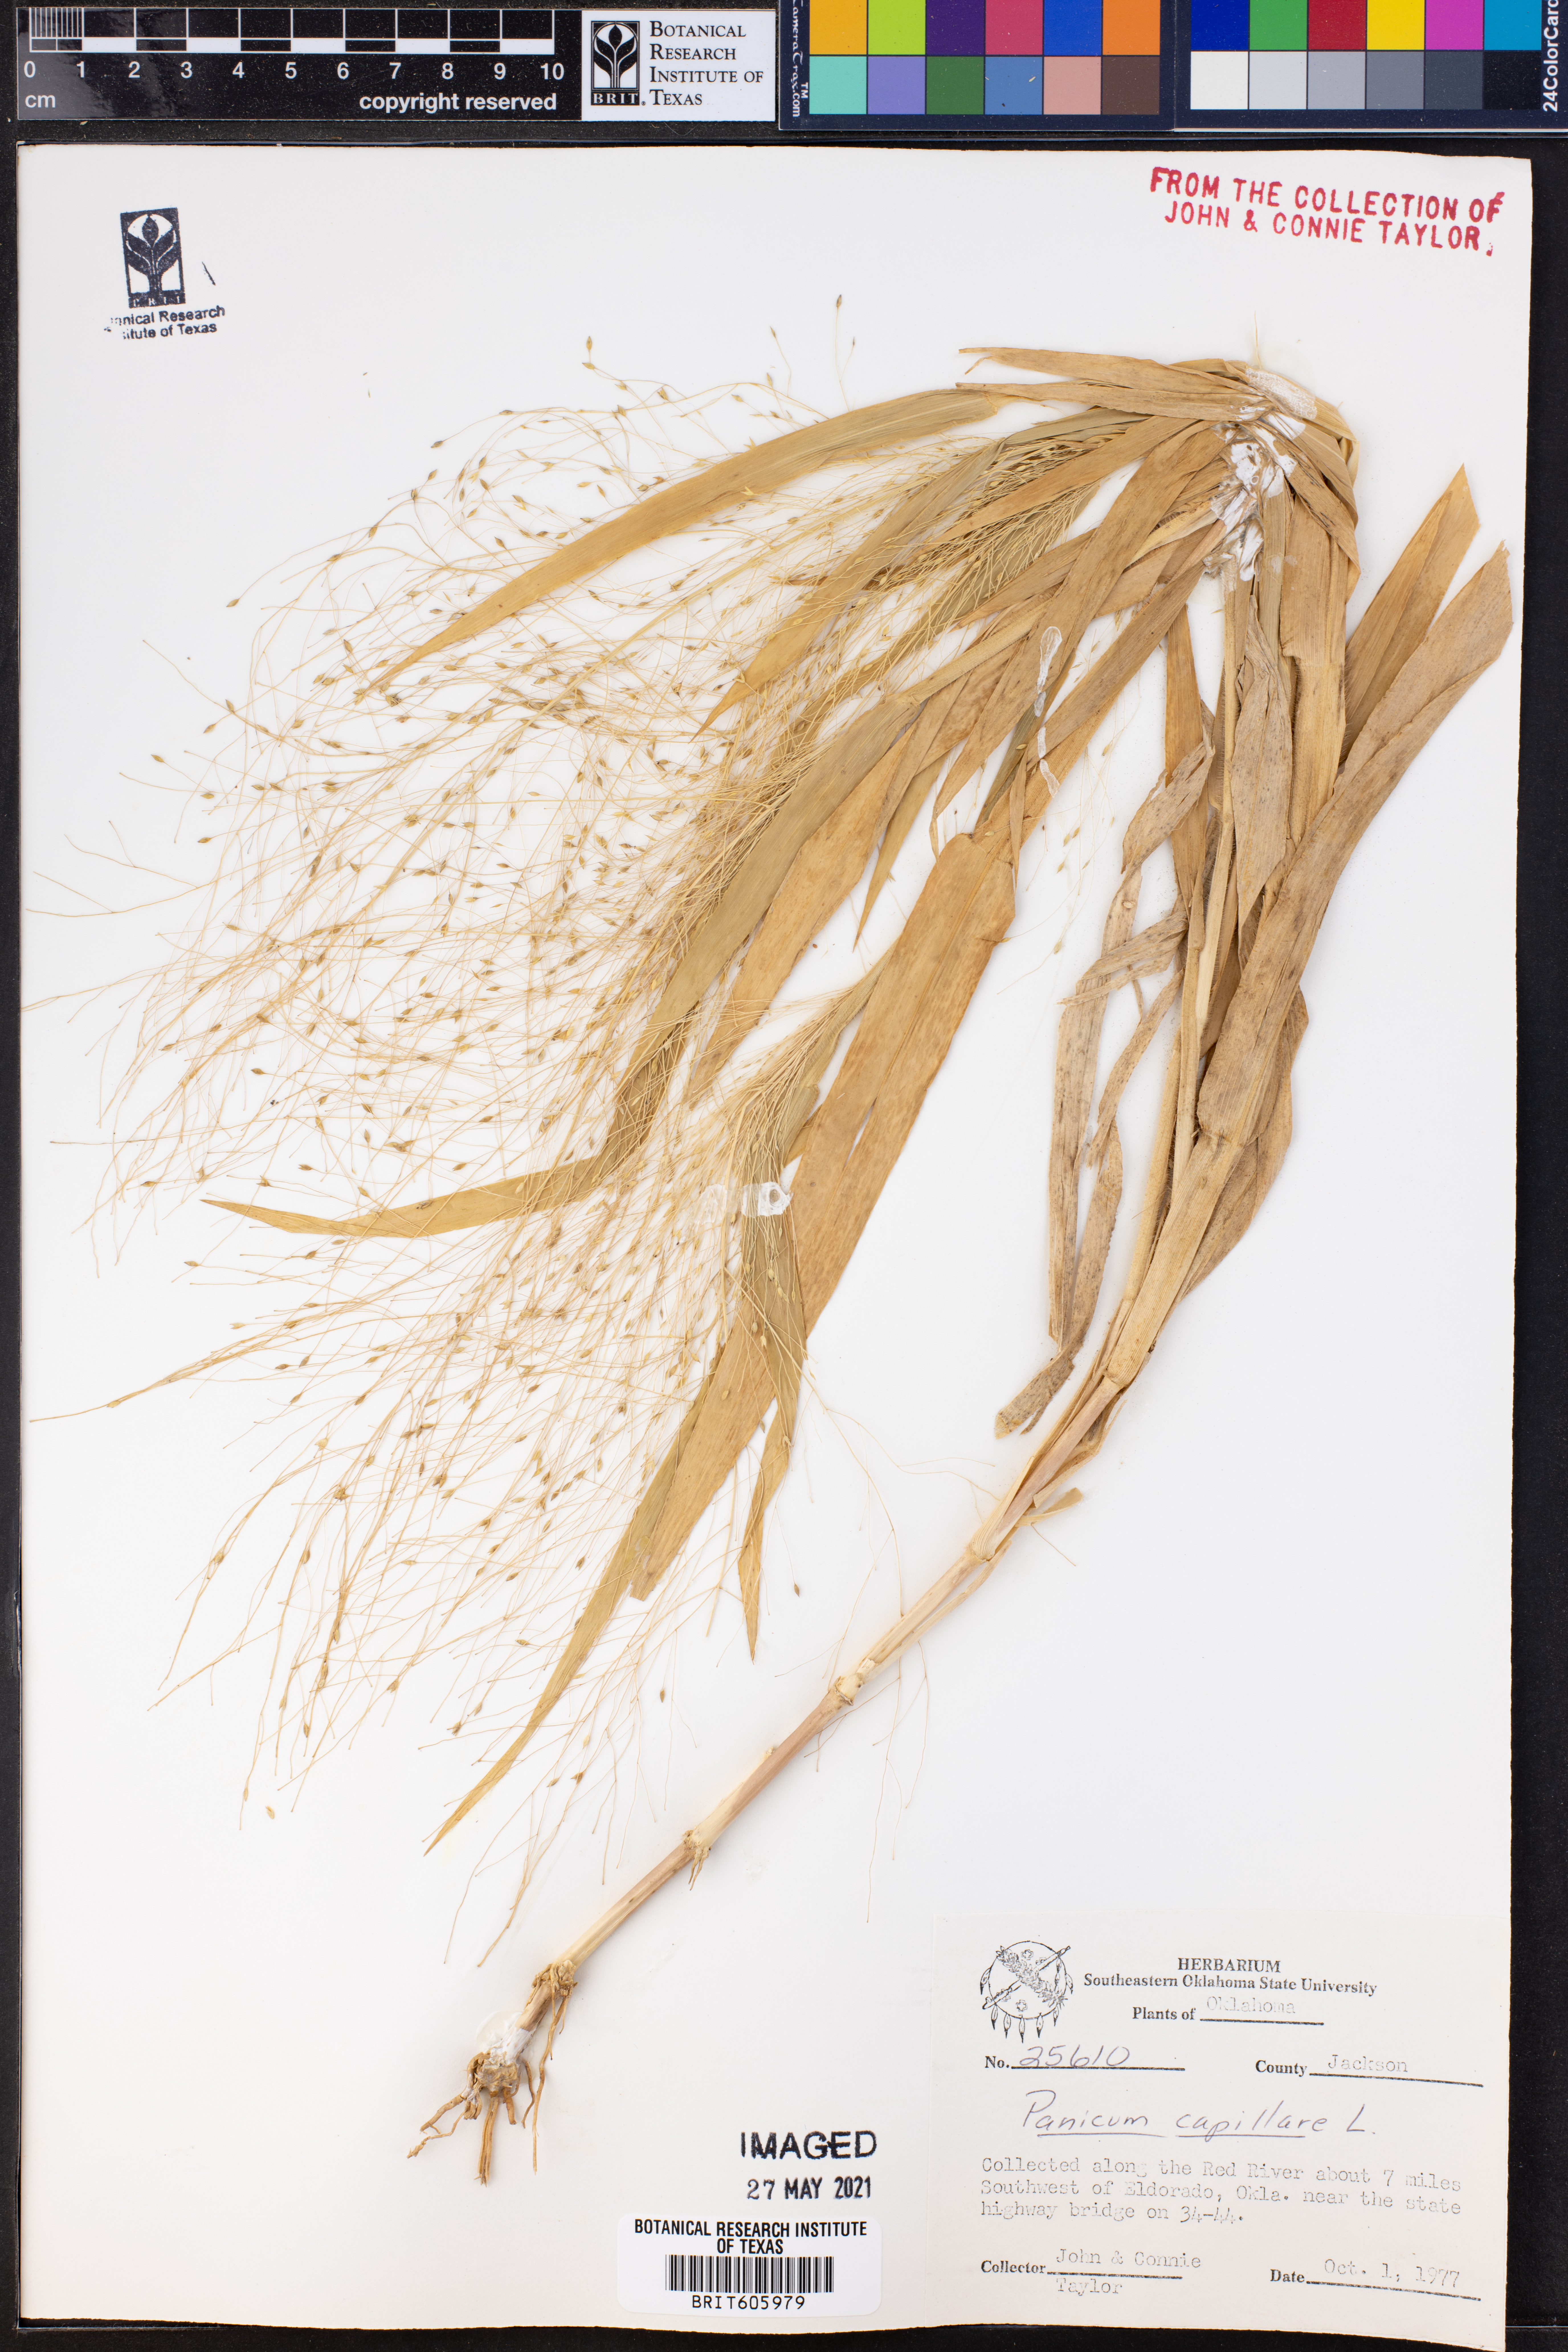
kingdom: Plantae
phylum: Tracheophyta
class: Liliopsida
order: Poales
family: Poaceae
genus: Panicum
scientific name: Panicum capillare
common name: Witch-grass
